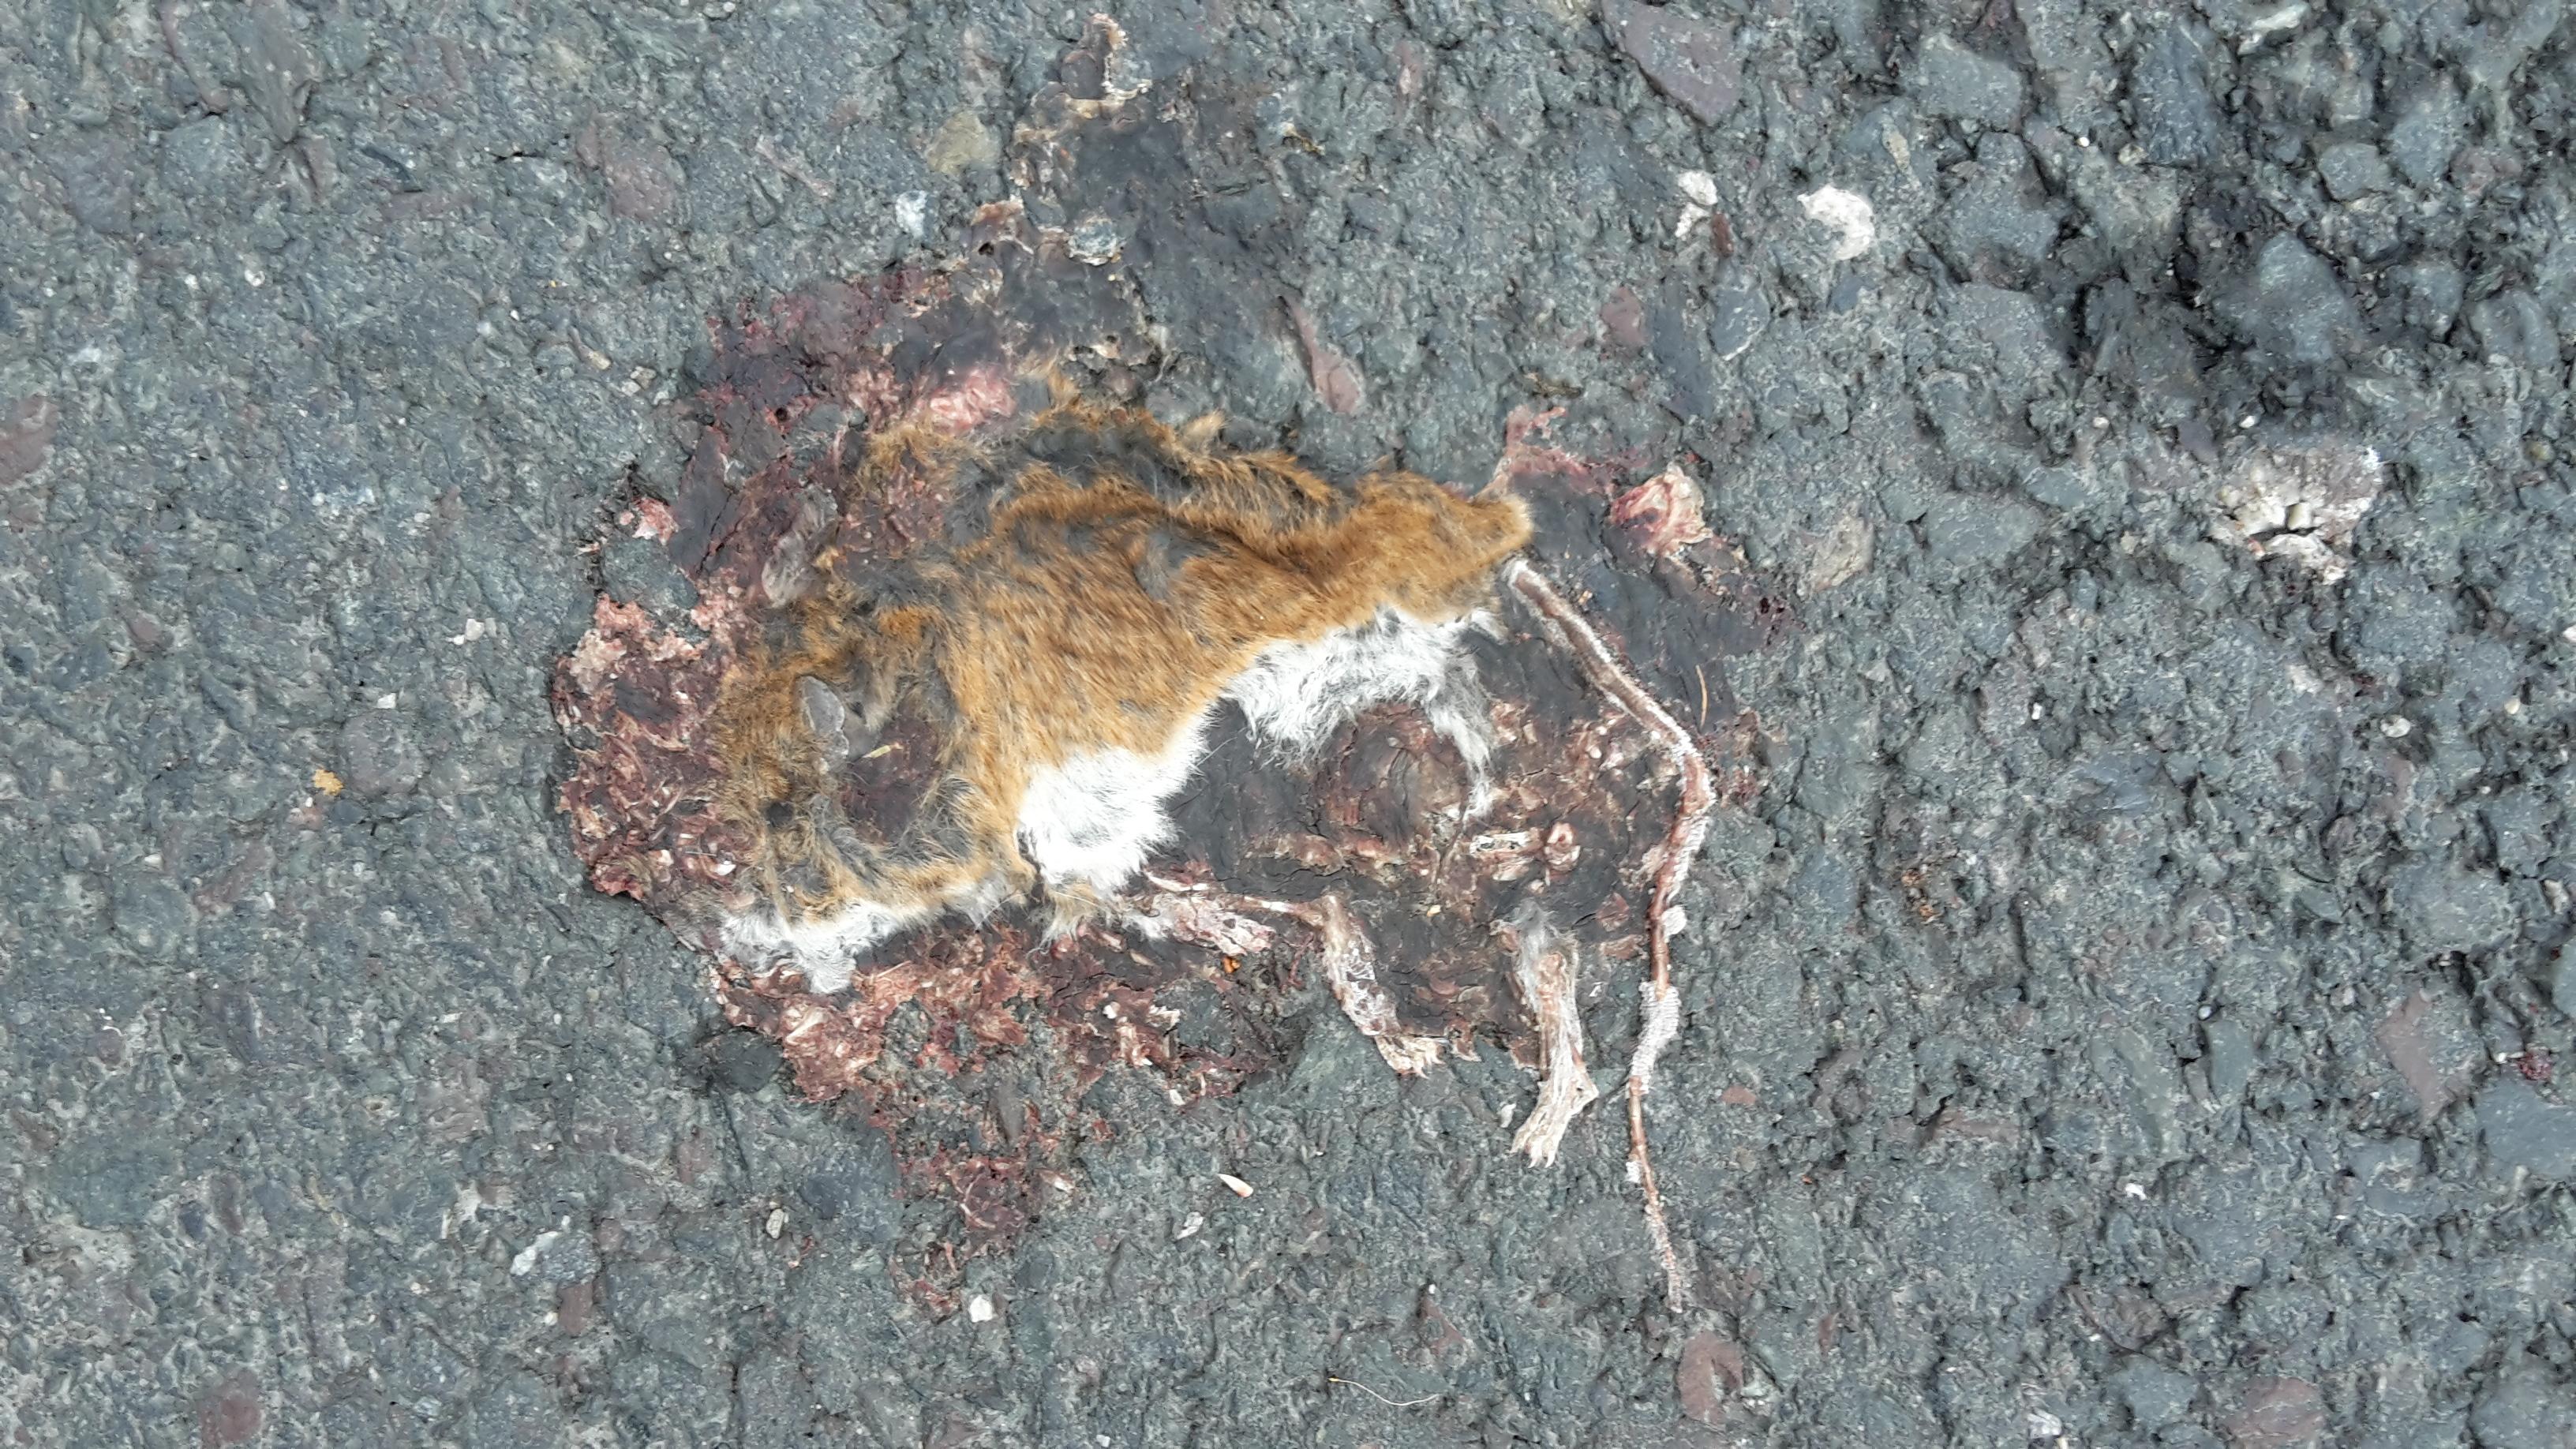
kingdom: Animalia
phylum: Chordata
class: Mammalia
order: Rodentia
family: Muridae
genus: Apodemus
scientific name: Apodemus
